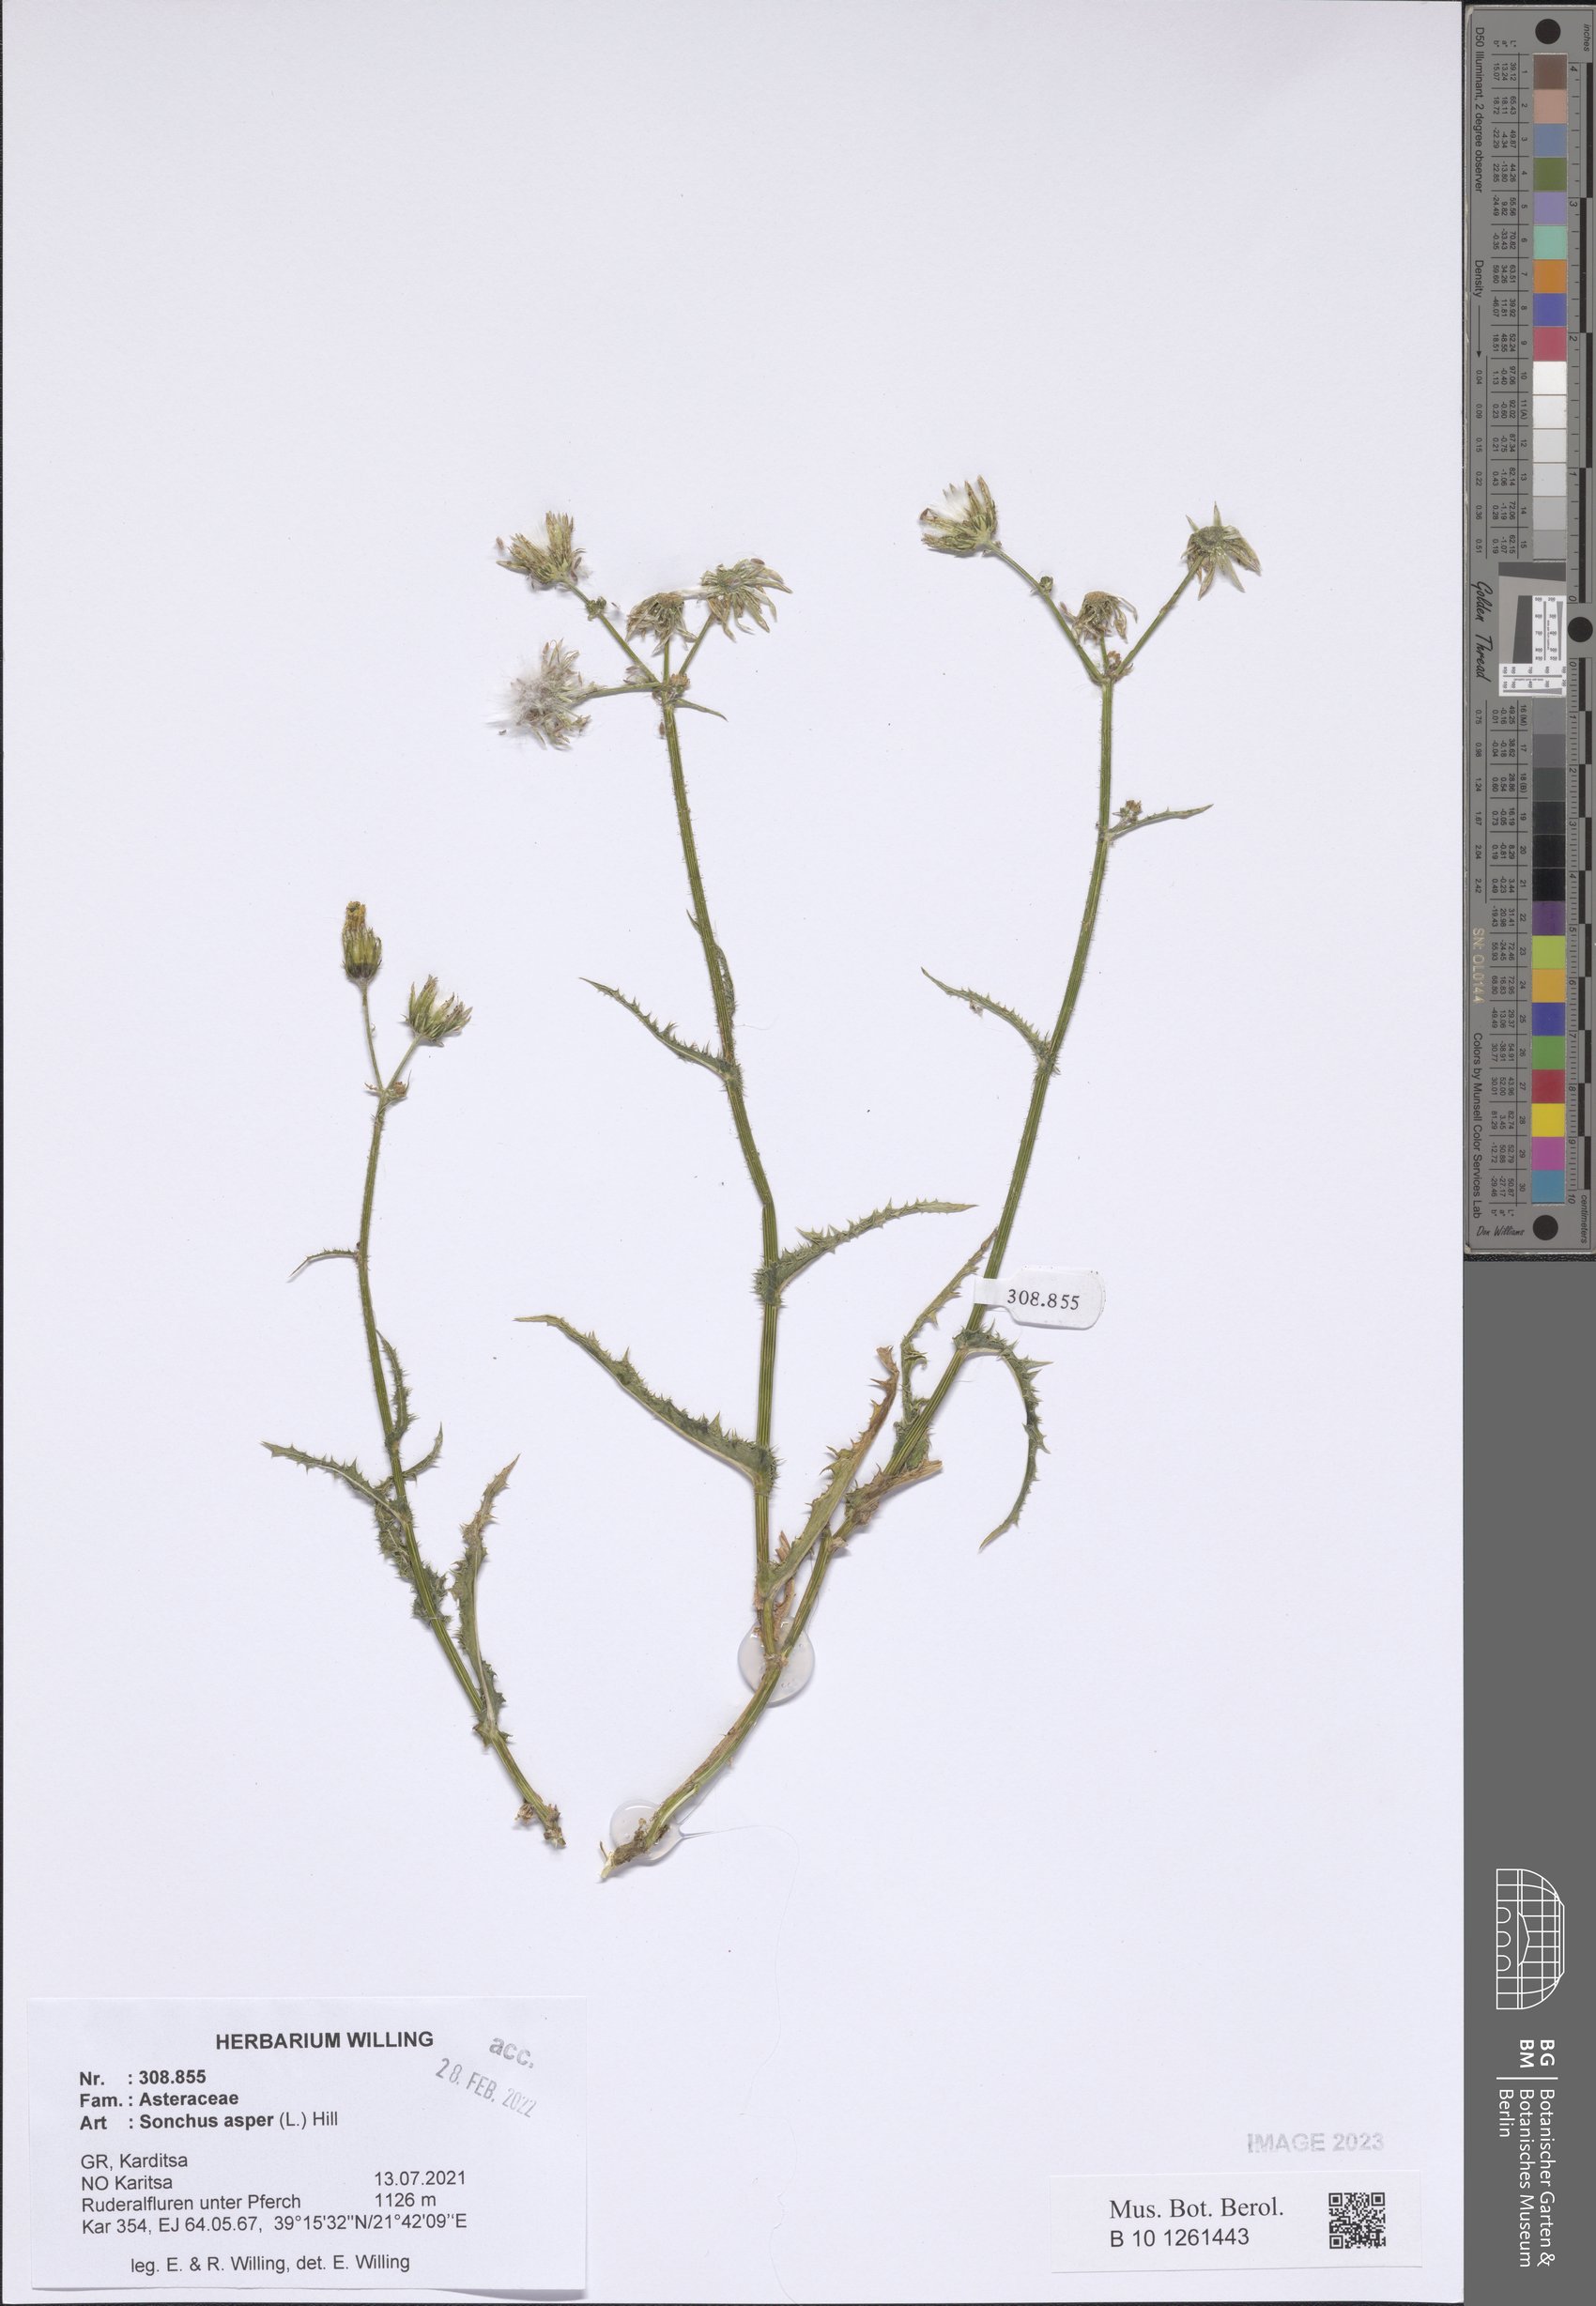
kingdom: Plantae
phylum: Tracheophyta
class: Magnoliopsida
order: Asterales
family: Asteraceae
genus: Sonchus
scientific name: Sonchus asper
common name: Prickly sow-thistle
